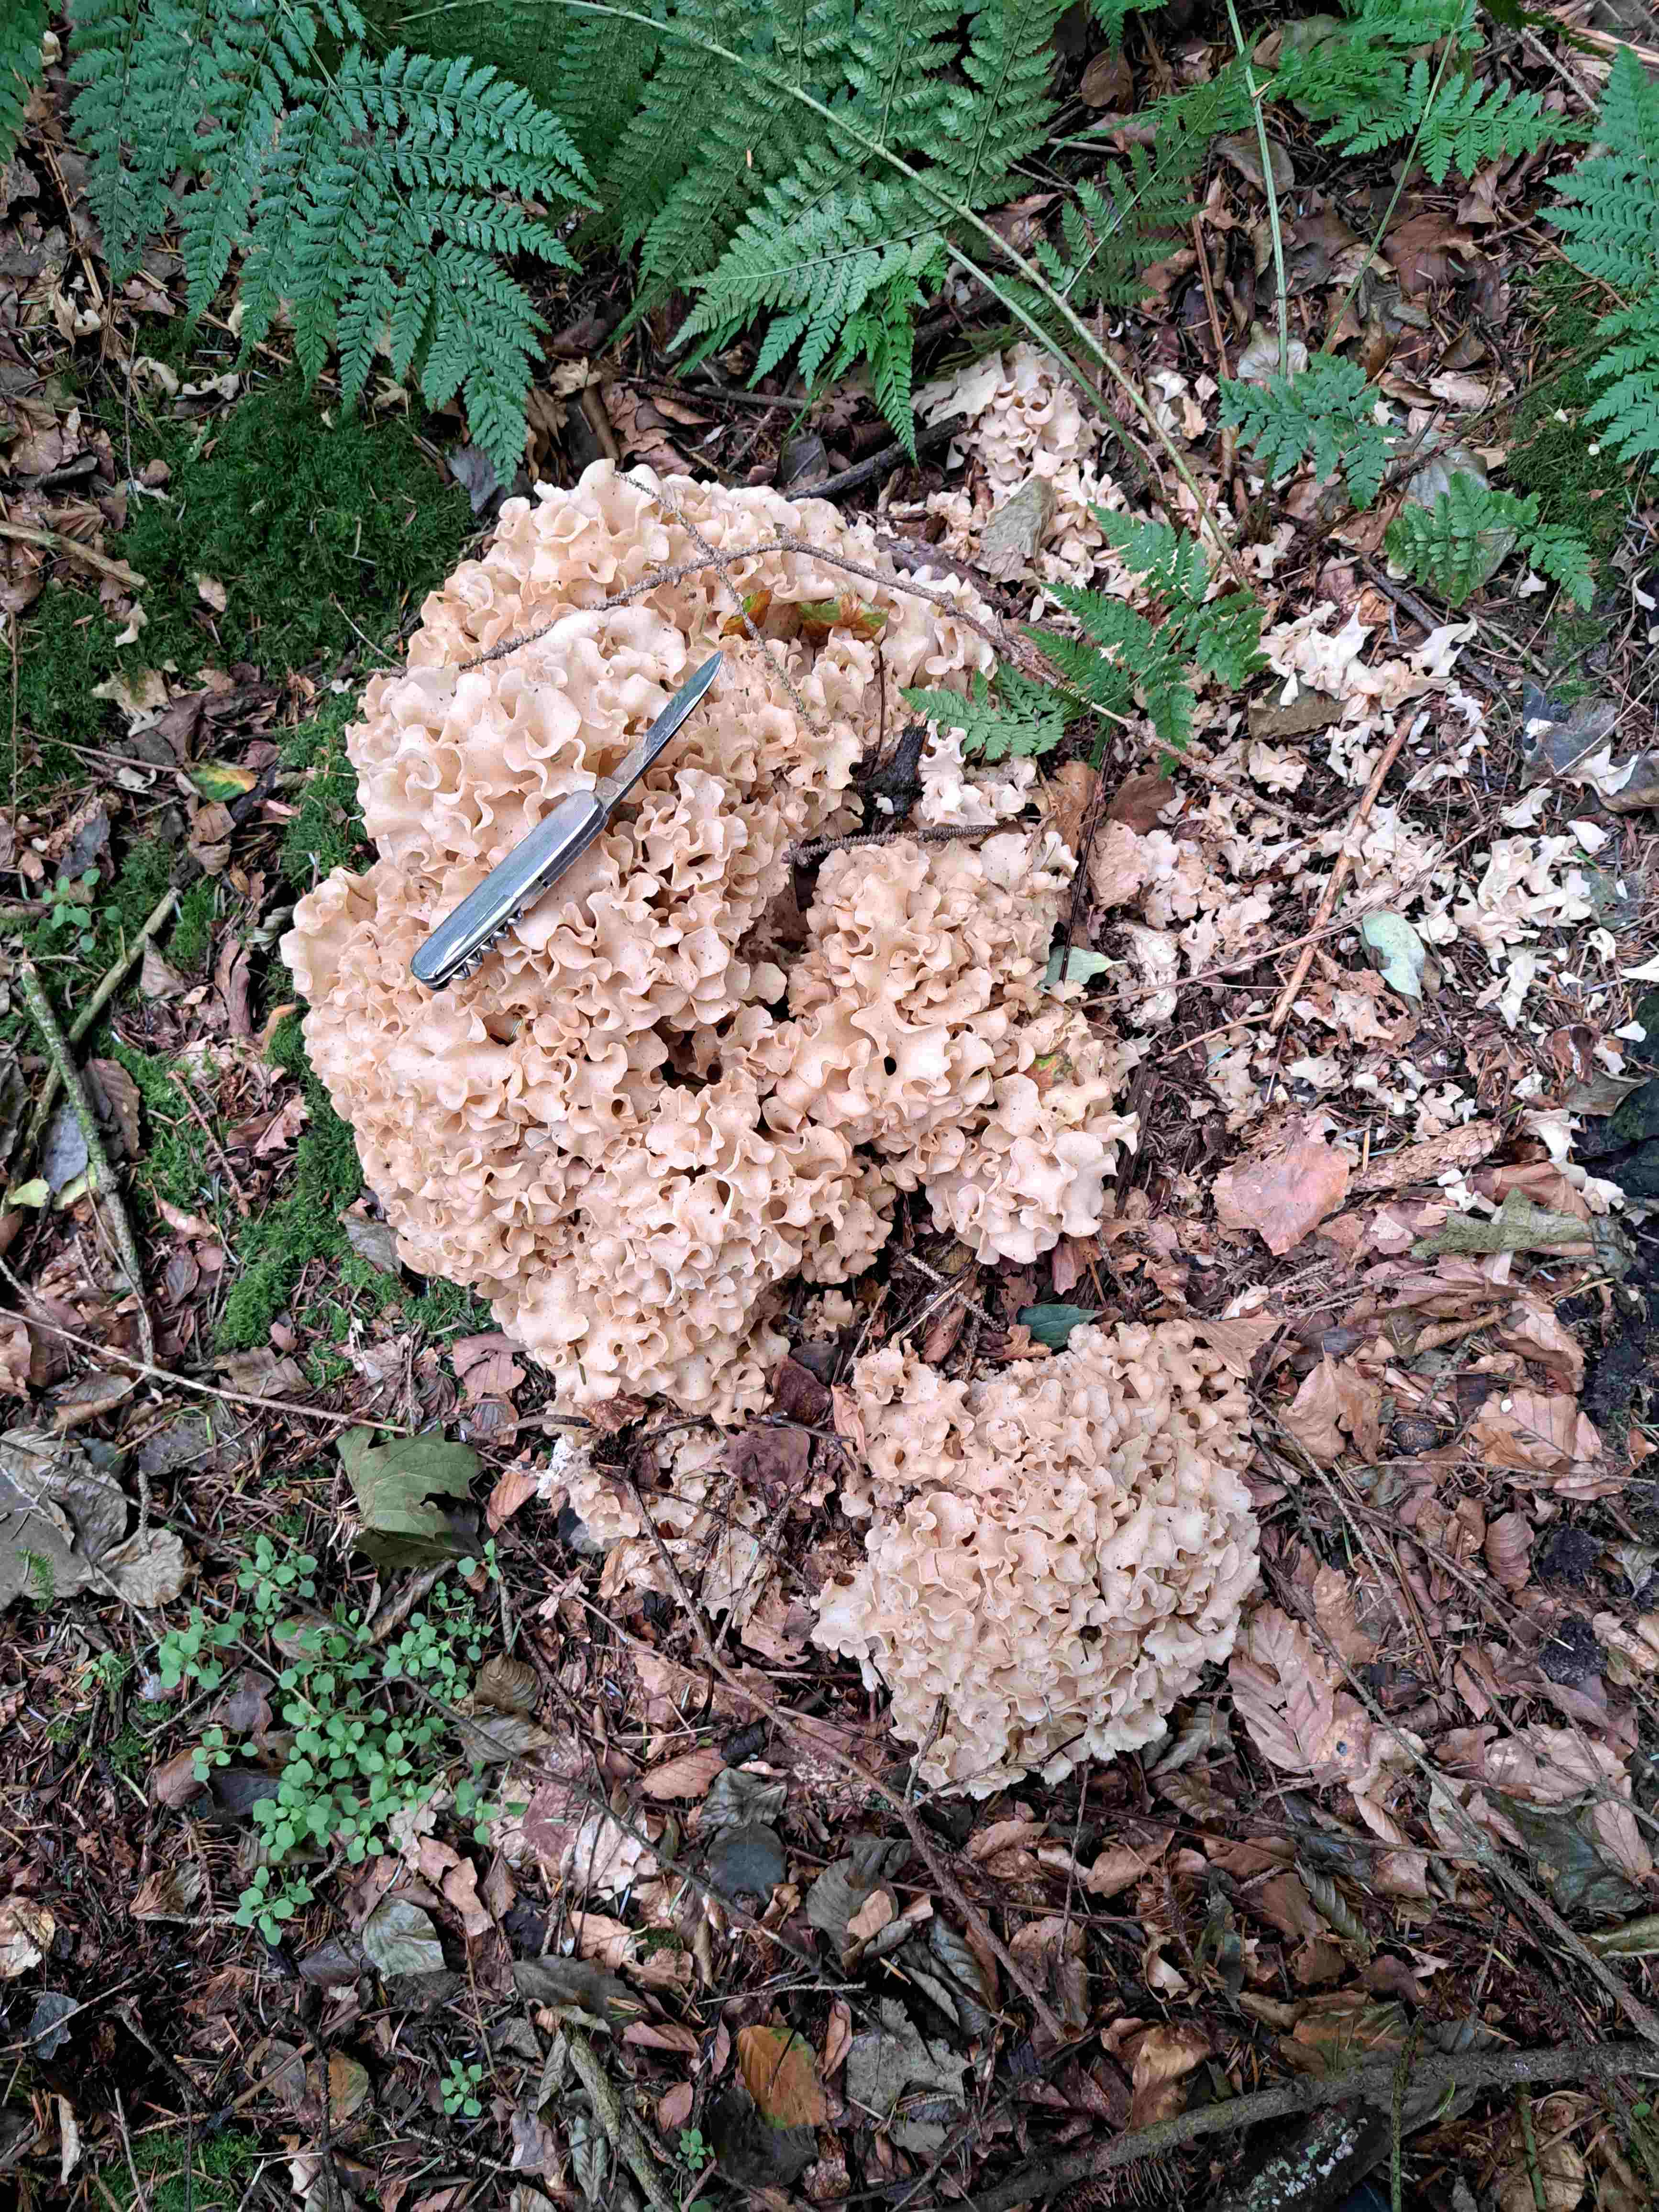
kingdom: Fungi
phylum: Basidiomycota
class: Agaricomycetes
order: Polyporales
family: Sparassidaceae
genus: Sparassis
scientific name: Sparassis crispa
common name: kruset blomkålssvamp
